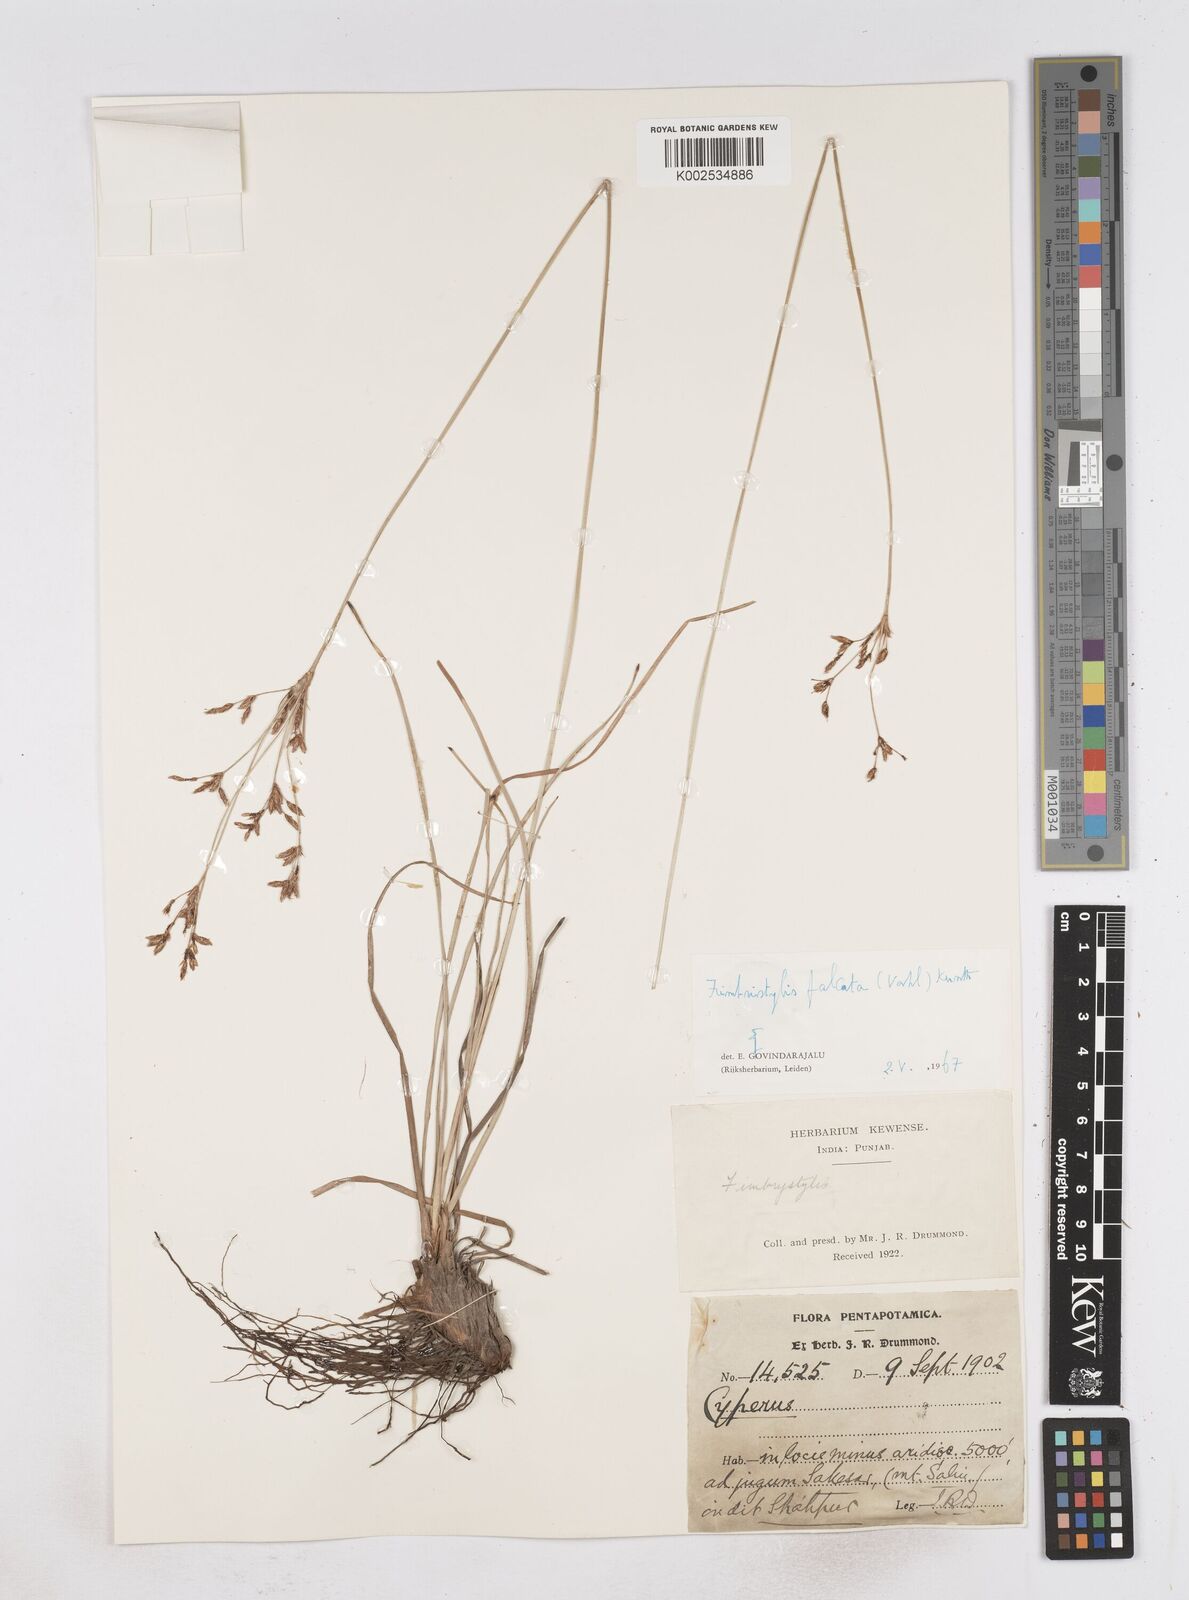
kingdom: Plantae
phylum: Tracheophyta
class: Liliopsida
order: Poales
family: Cyperaceae
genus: Fimbristylis
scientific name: Fimbristylis falcata
